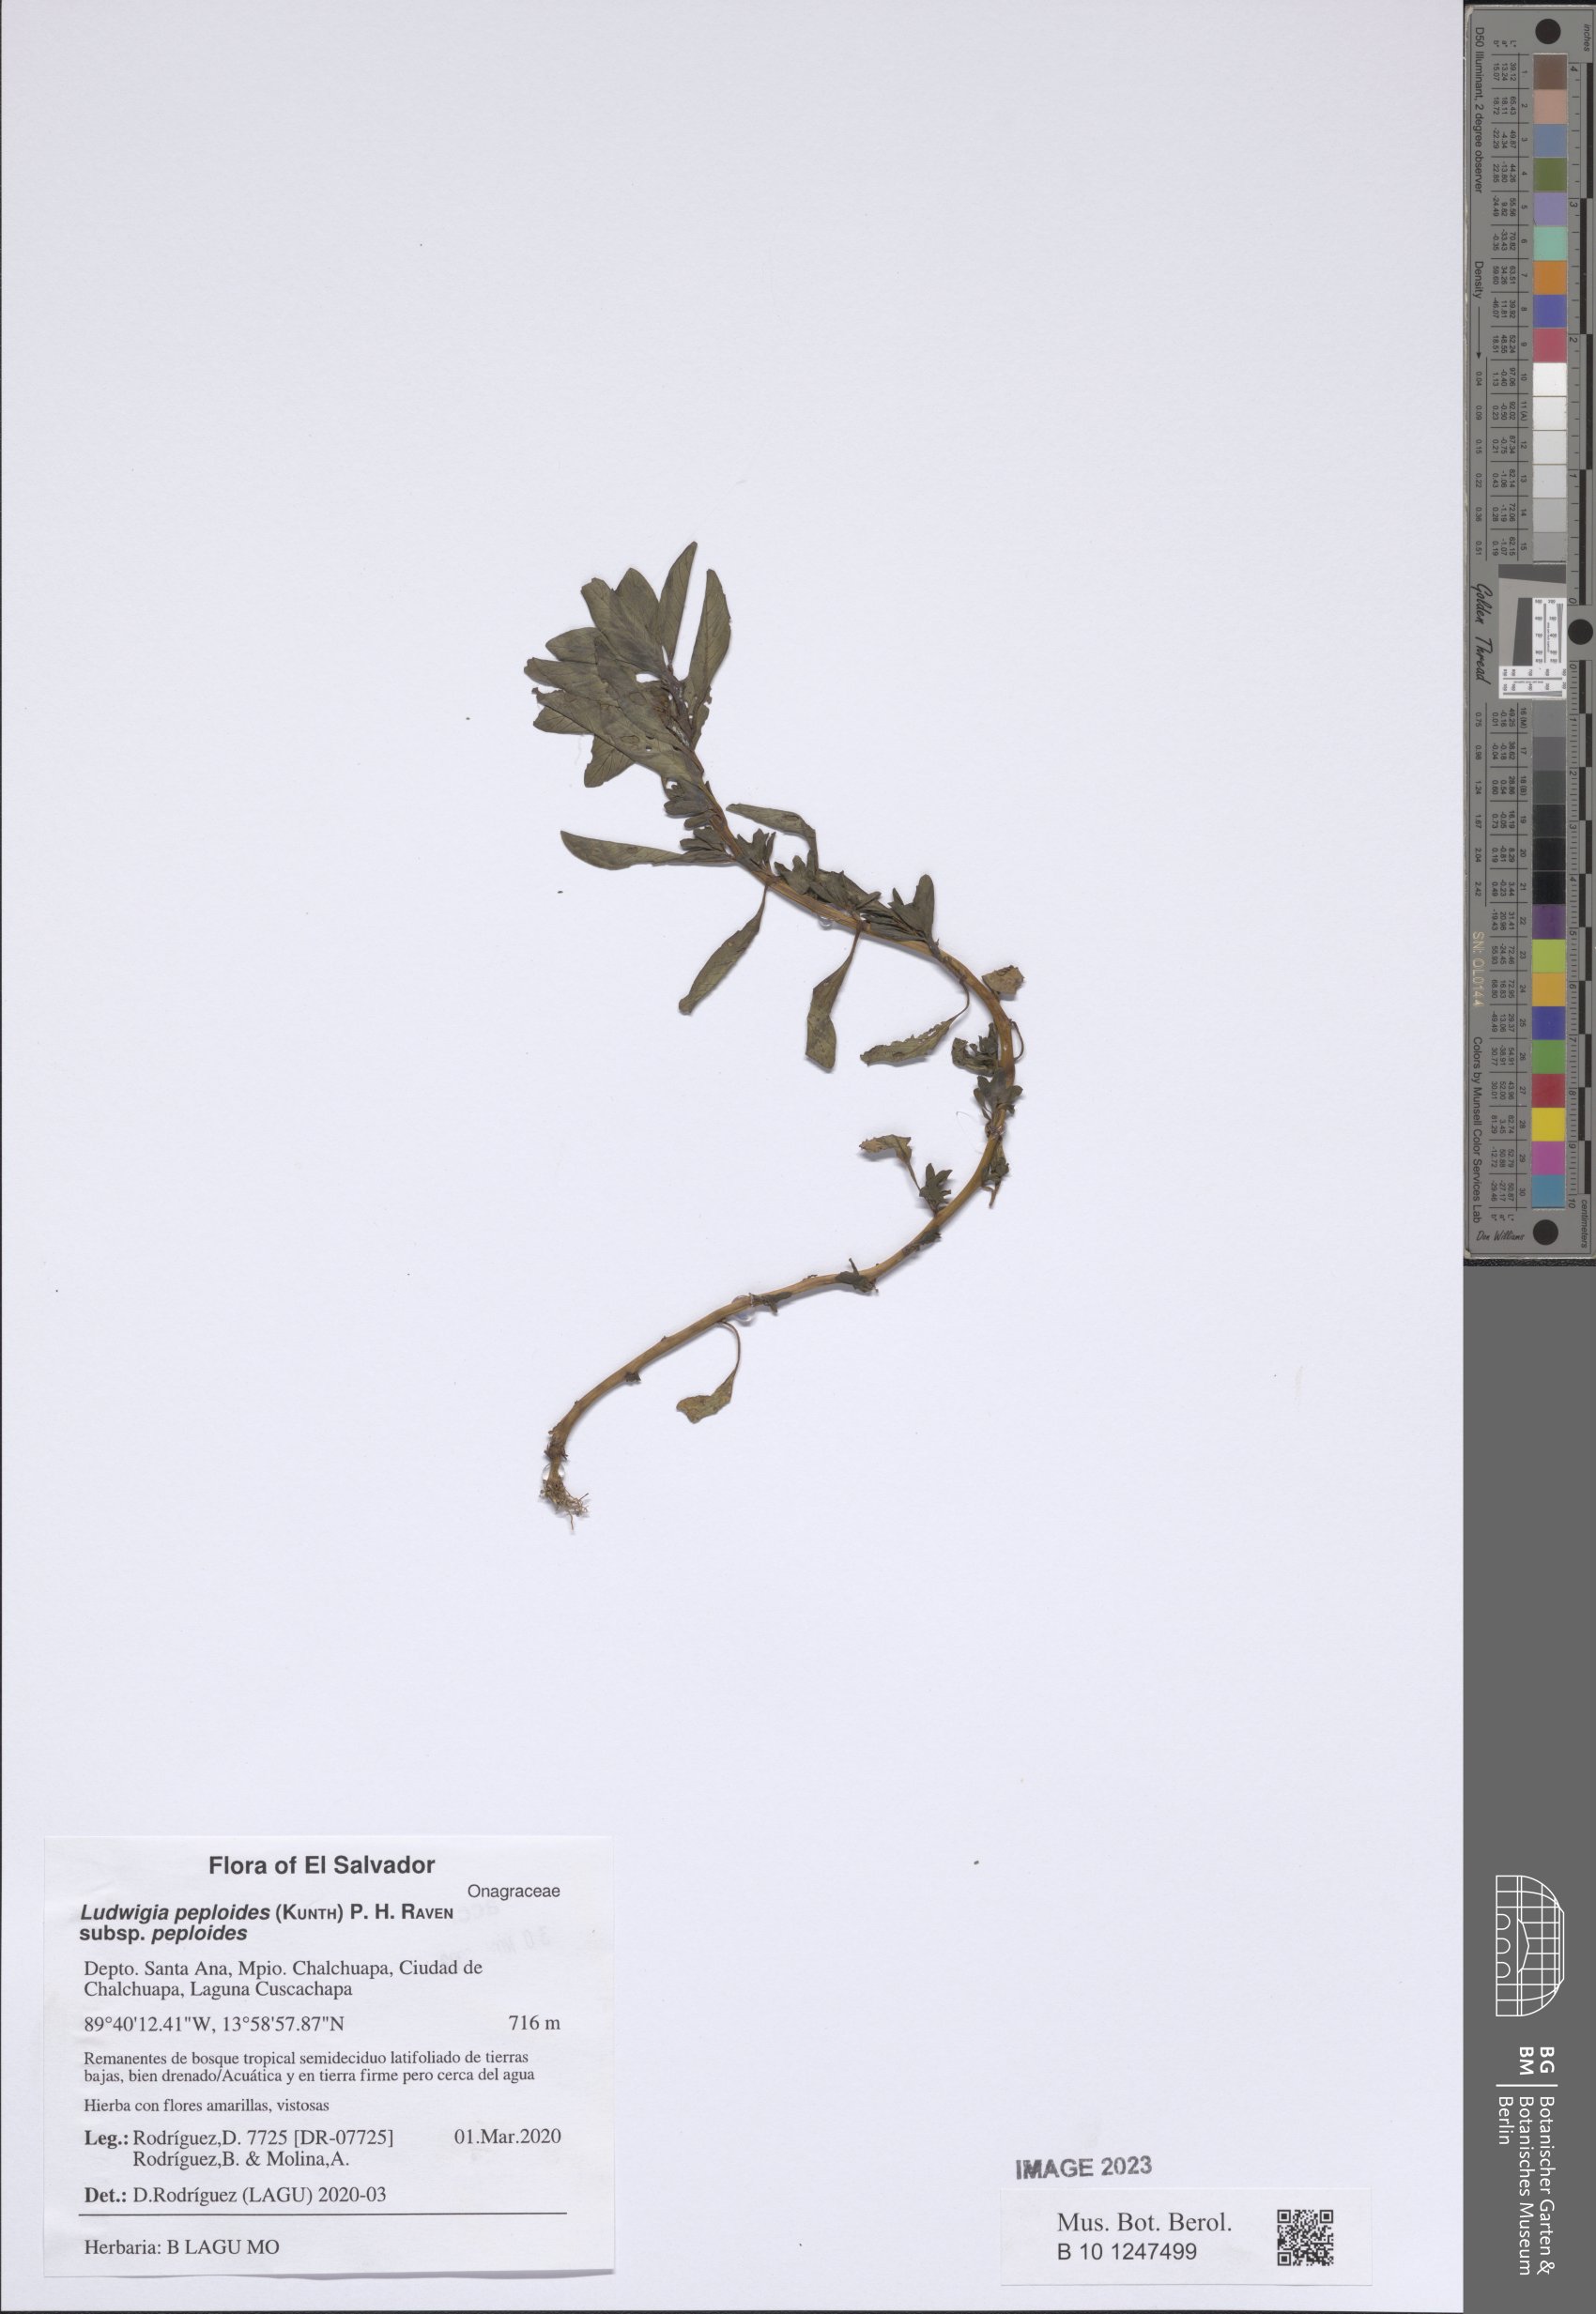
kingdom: Plantae
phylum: Tracheophyta
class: Magnoliopsida
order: Myrtales
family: Onagraceae
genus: Ludwigia
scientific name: Ludwigia peploides
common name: Floating primrose-willow
